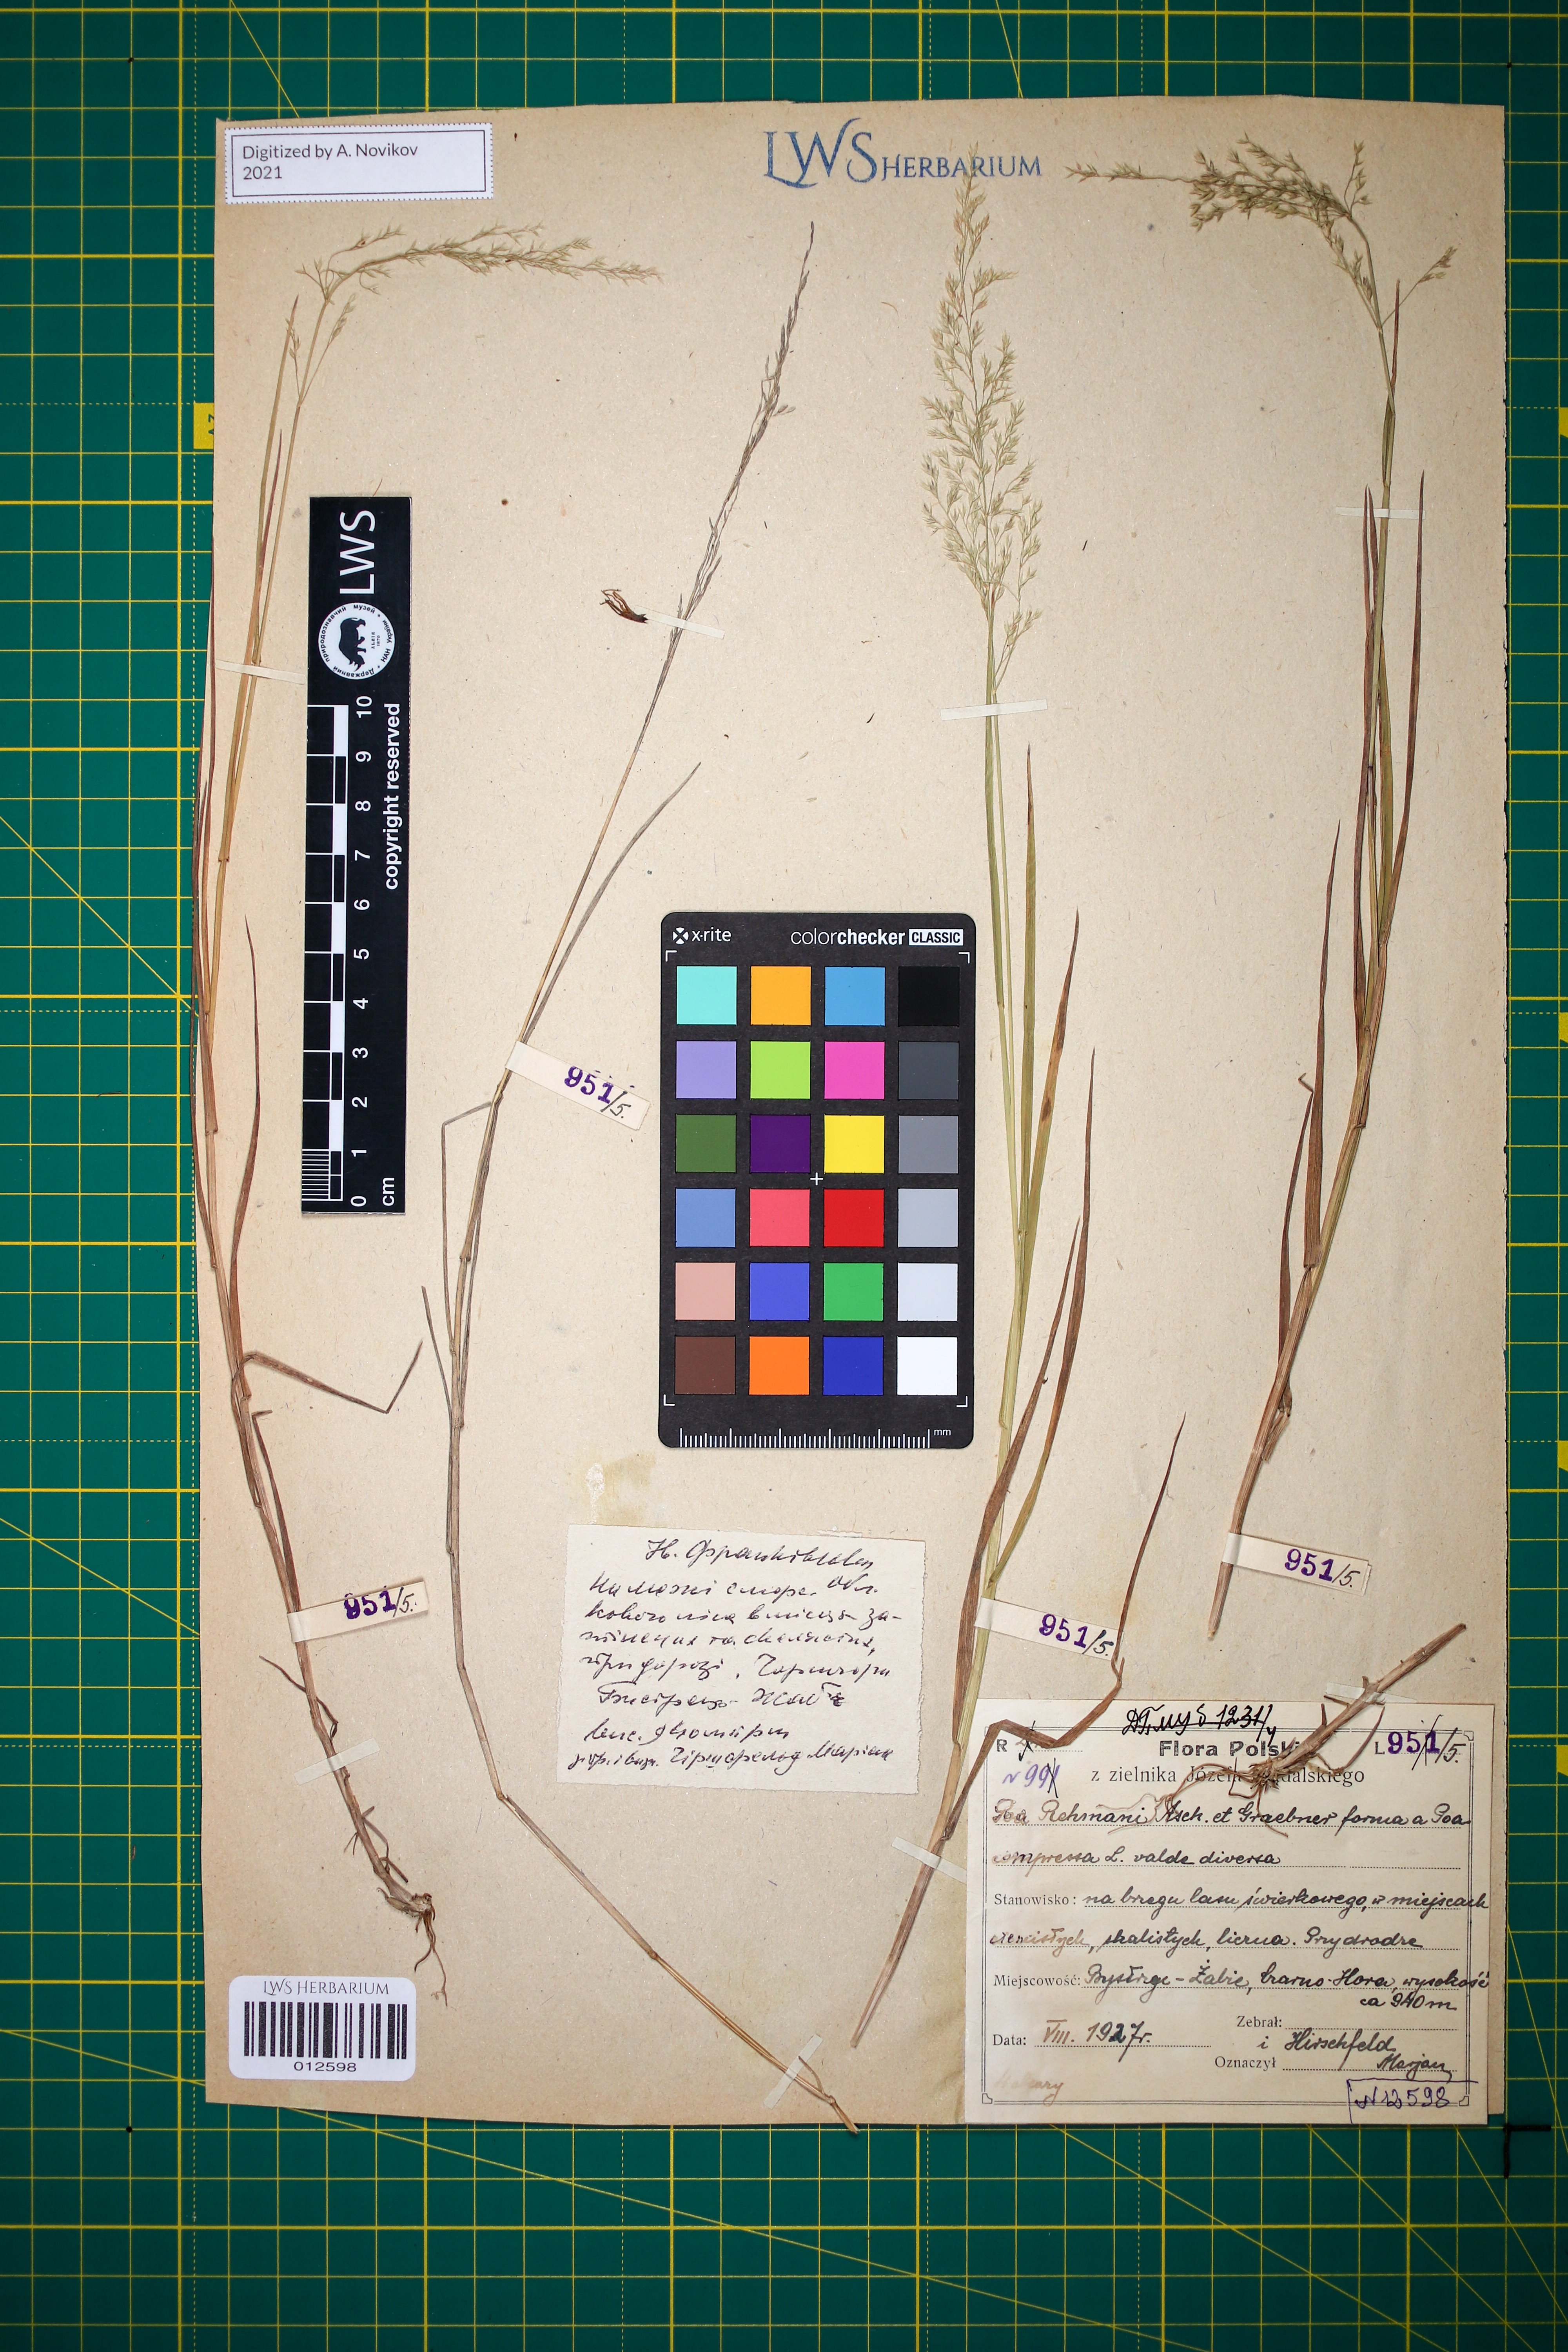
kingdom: Plantae
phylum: Tracheophyta
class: Liliopsida
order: Poales
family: Poaceae
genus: Poa
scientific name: Poa rehmannii
